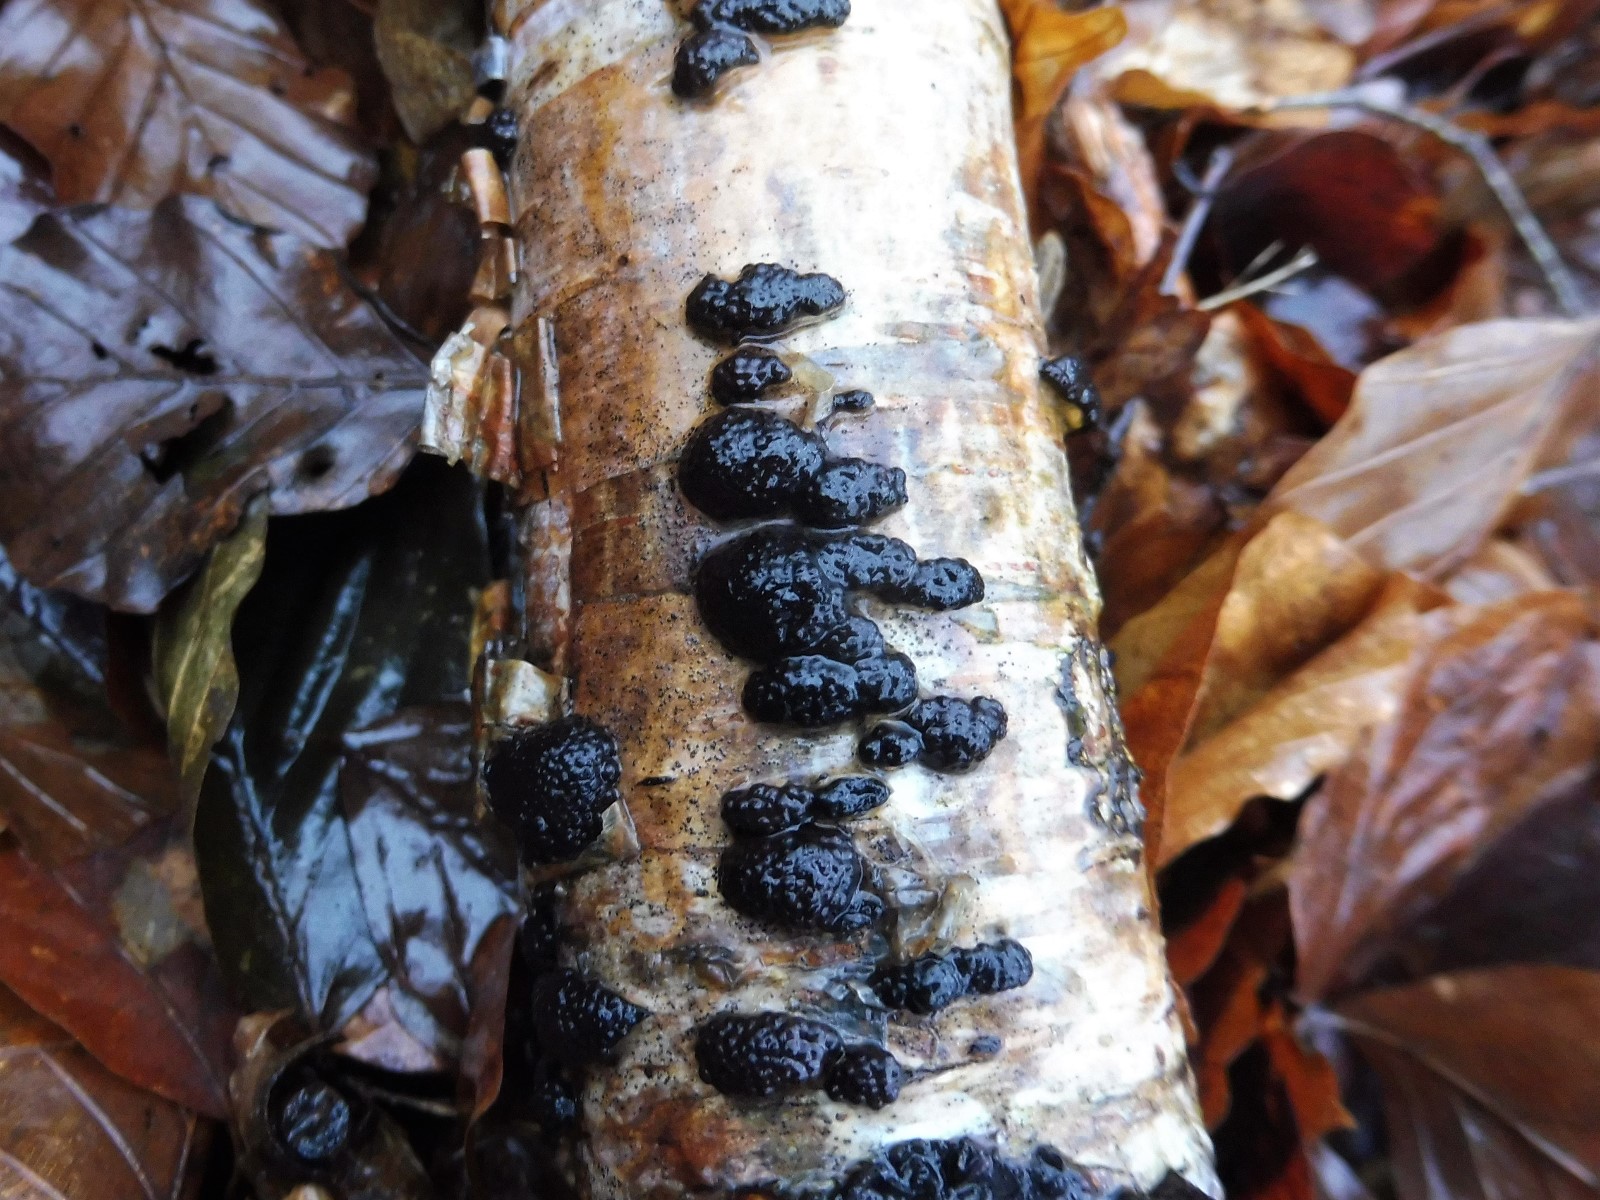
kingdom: Fungi
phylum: Ascomycota
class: Sordariomycetes
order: Xylariales
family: Hypoxylaceae
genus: Jackrogersella
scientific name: Jackrogersella multiformis
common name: foranderlig kulbær
